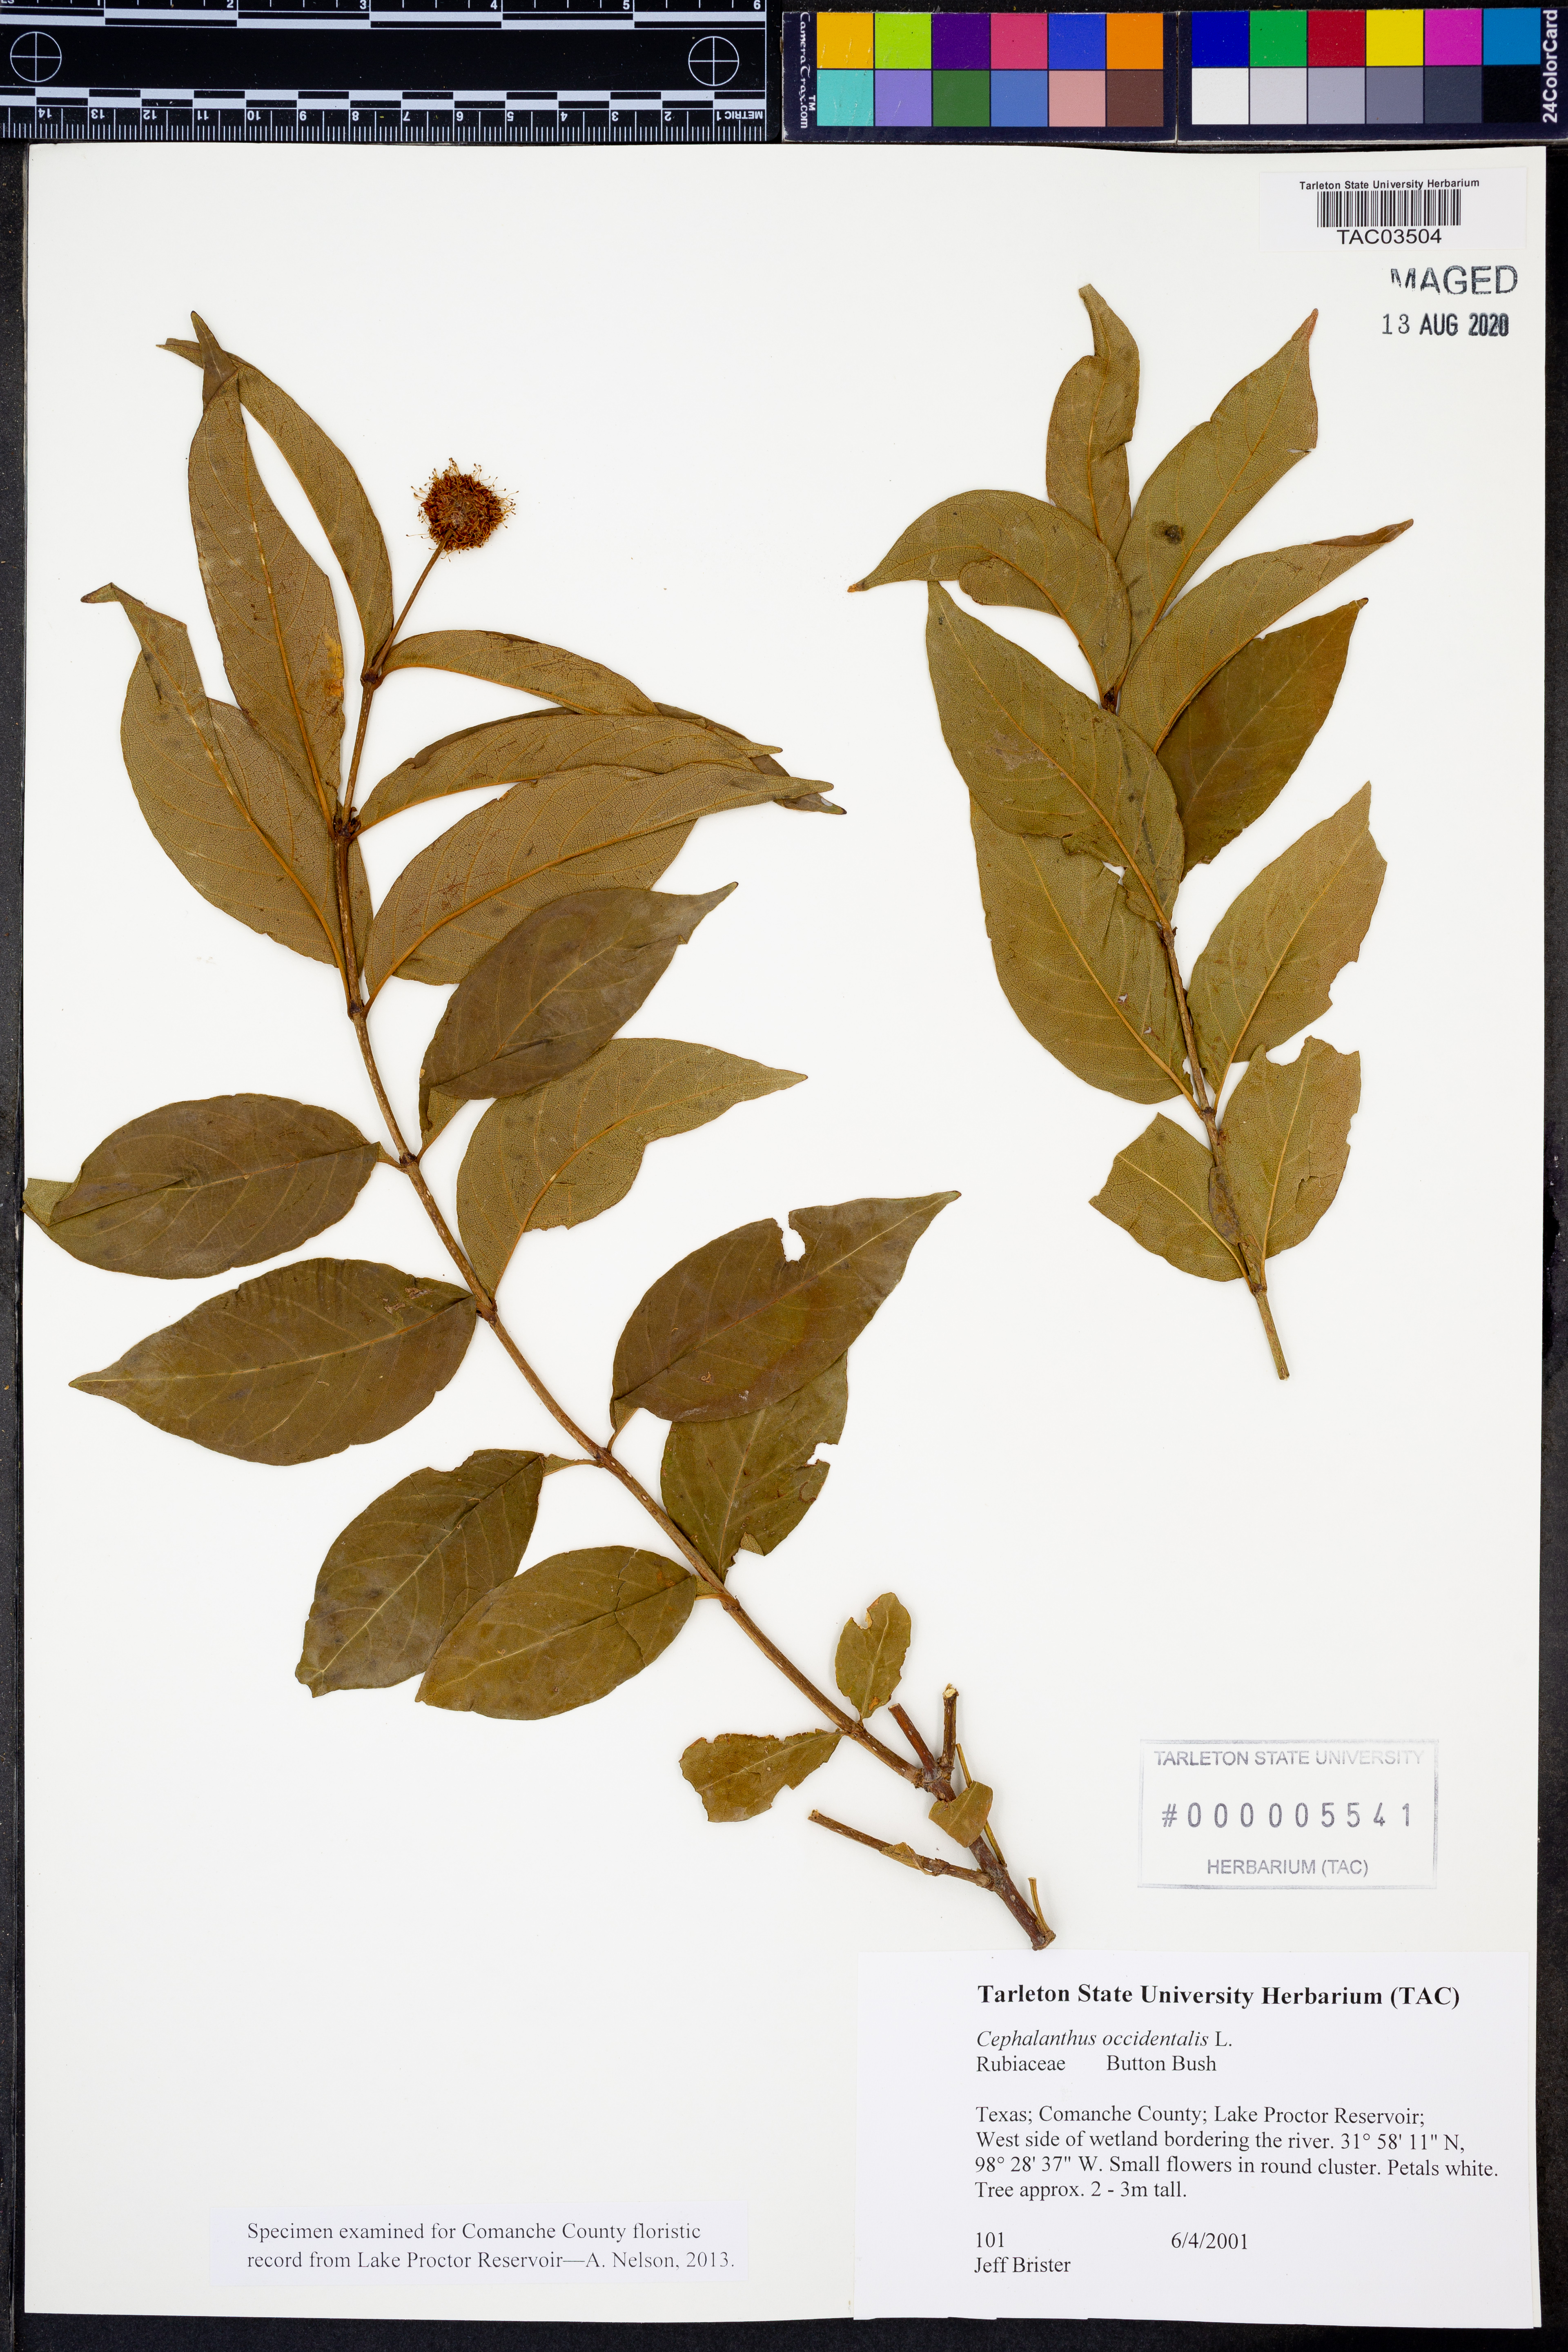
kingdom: Plantae
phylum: Tracheophyta
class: Magnoliopsida
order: Gentianales
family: Rubiaceae
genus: Cephalanthus
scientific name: Cephalanthus occidentalis
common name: Button-willow
